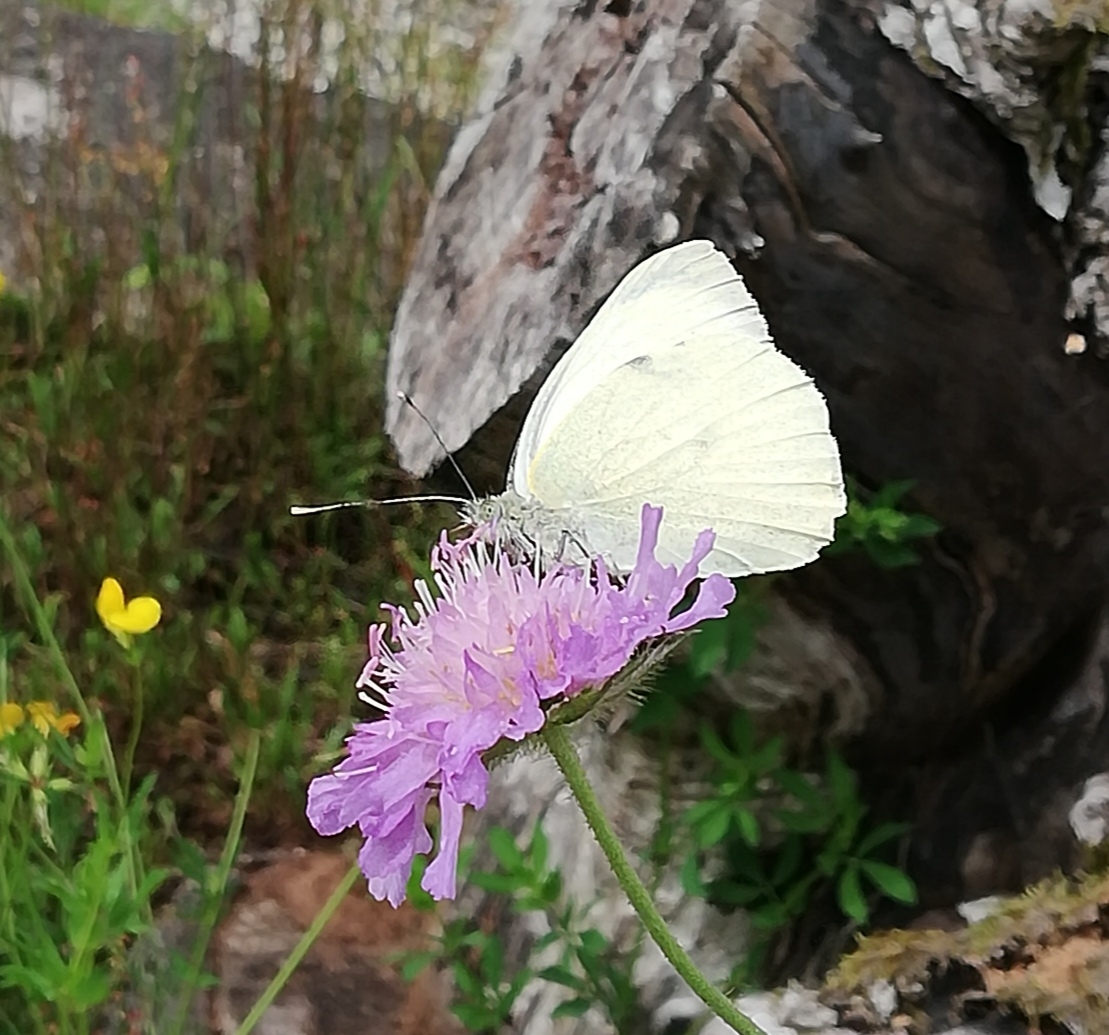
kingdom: Animalia
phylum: Arthropoda
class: Insecta
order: Lepidoptera
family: Pieridae
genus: Pieris
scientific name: Pieris brassicae
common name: Stor kålsommerfugl
